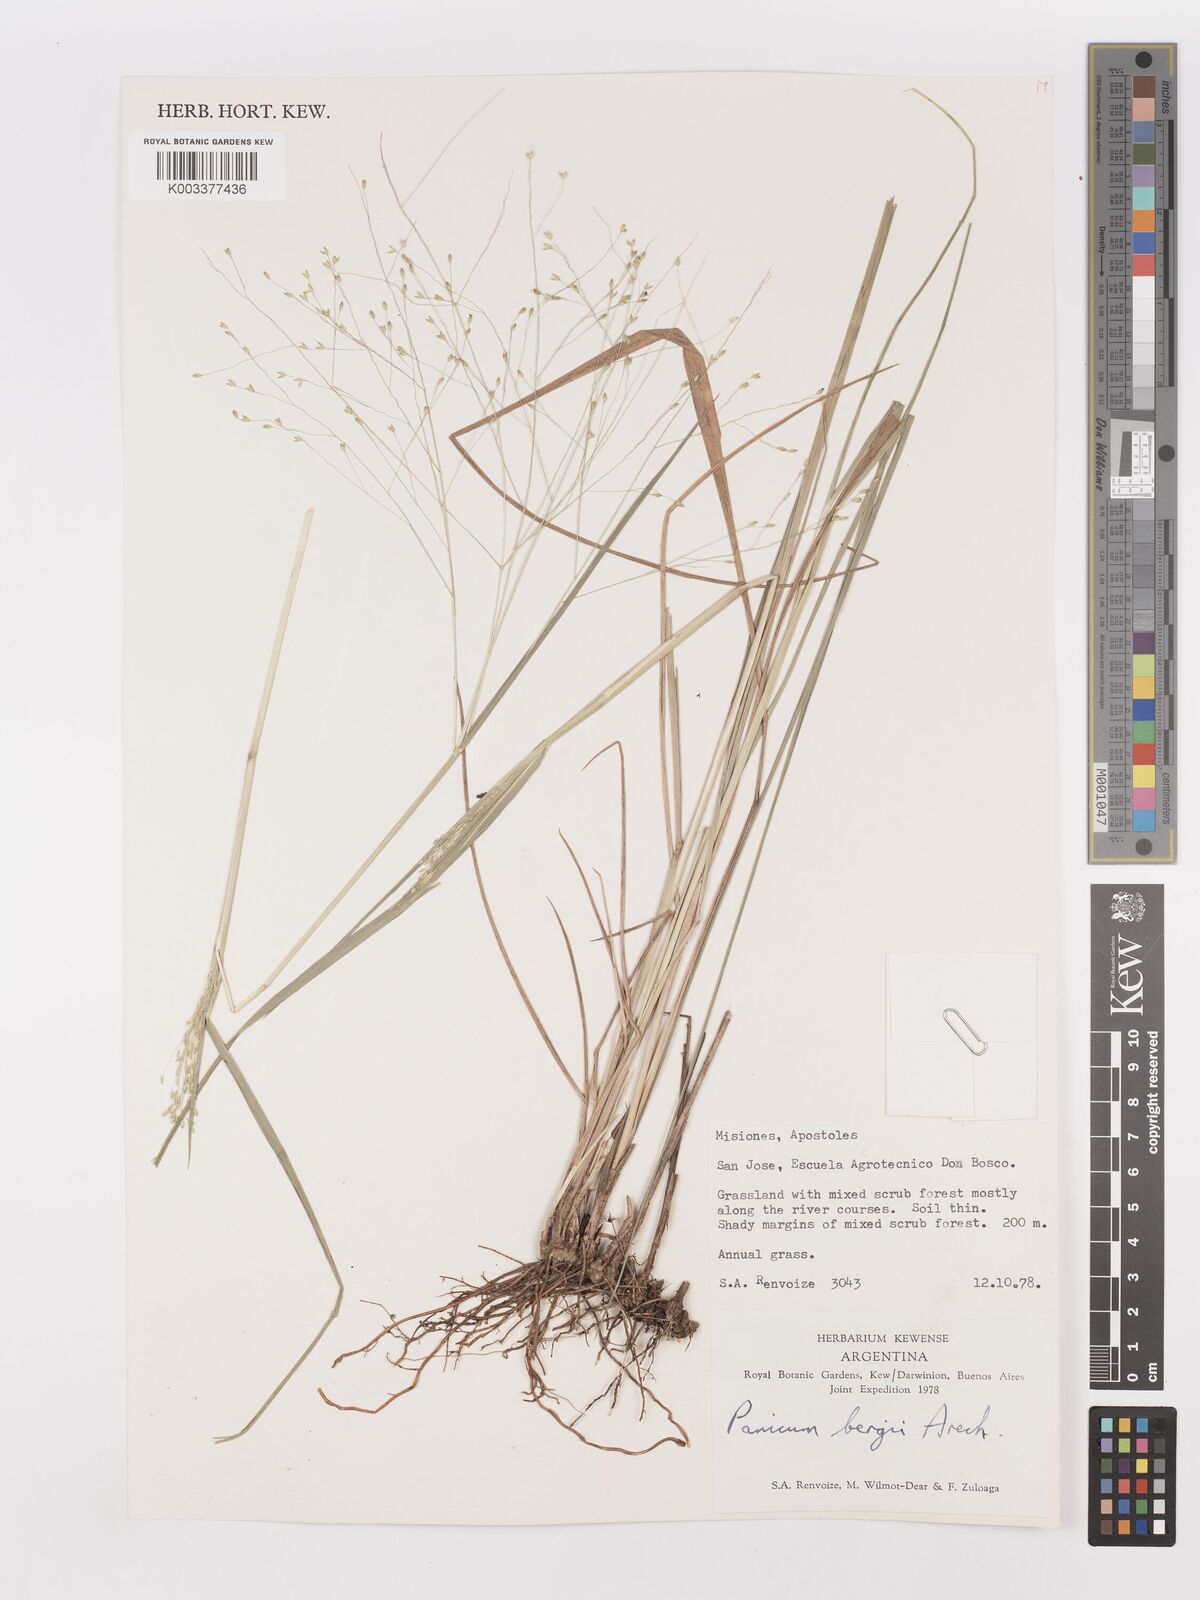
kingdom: Plantae
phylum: Tracheophyta
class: Liliopsida
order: Poales
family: Poaceae
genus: Panicum
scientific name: Panicum bergii
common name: Berg's panicgrass
